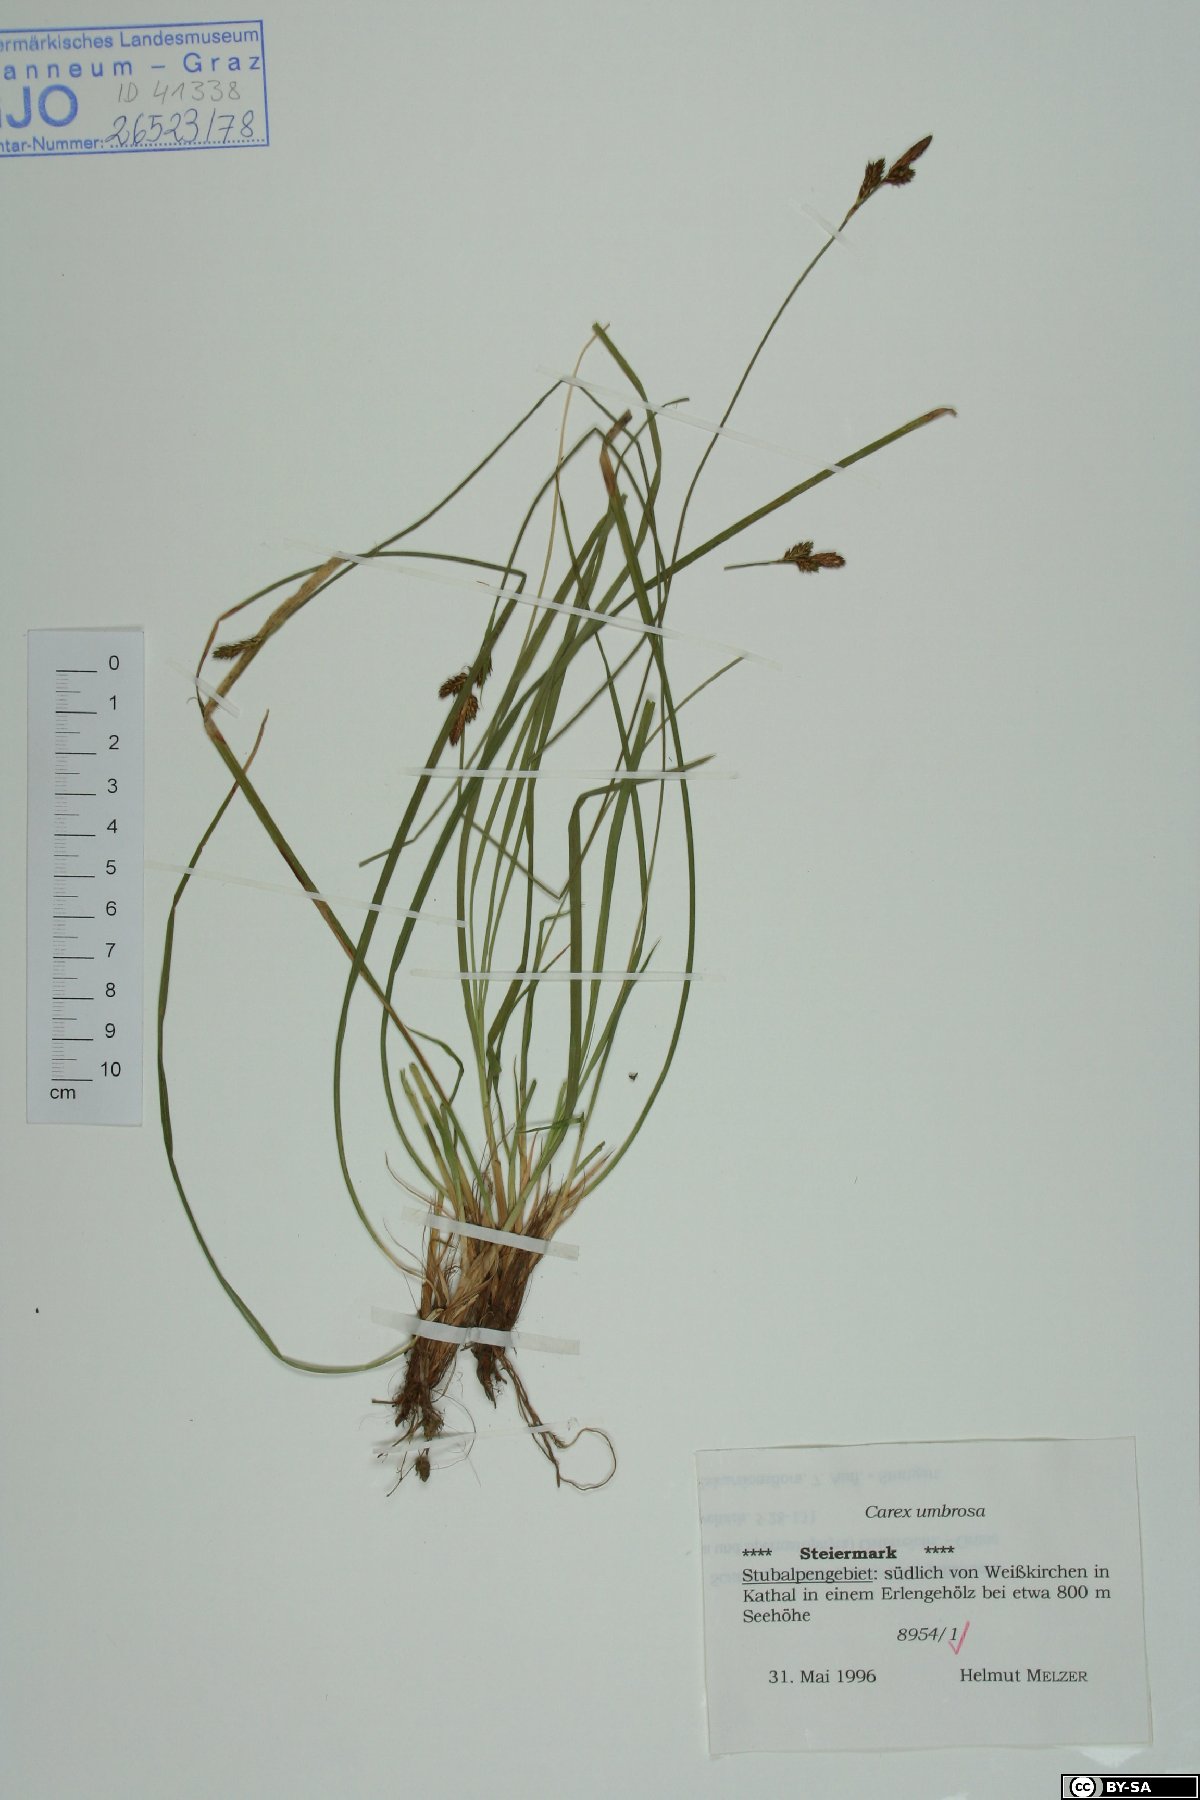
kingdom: Plantae
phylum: Tracheophyta
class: Liliopsida
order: Poales
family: Cyperaceae
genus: Carex
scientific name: Carex umbrosa
